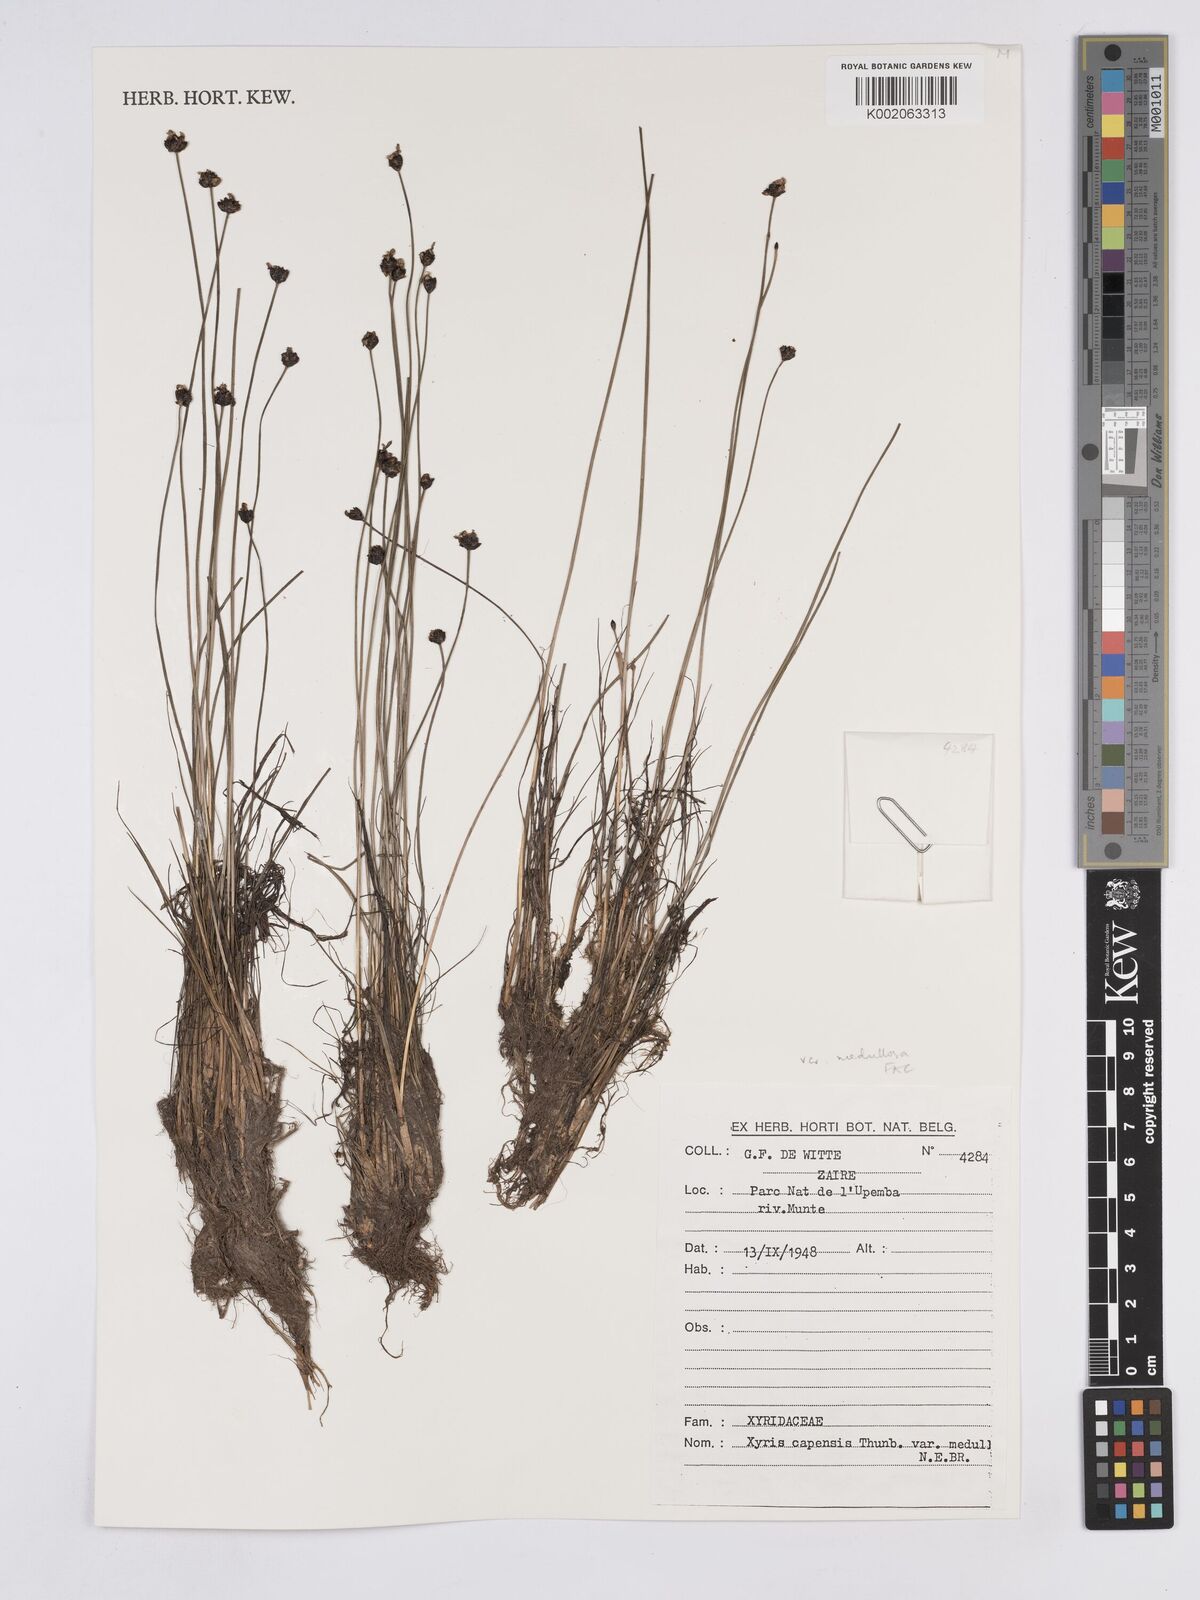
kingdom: Plantae
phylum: Tracheophyta
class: Liliopsida
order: Poales
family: Xyridaceae
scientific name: Xyridaceae
